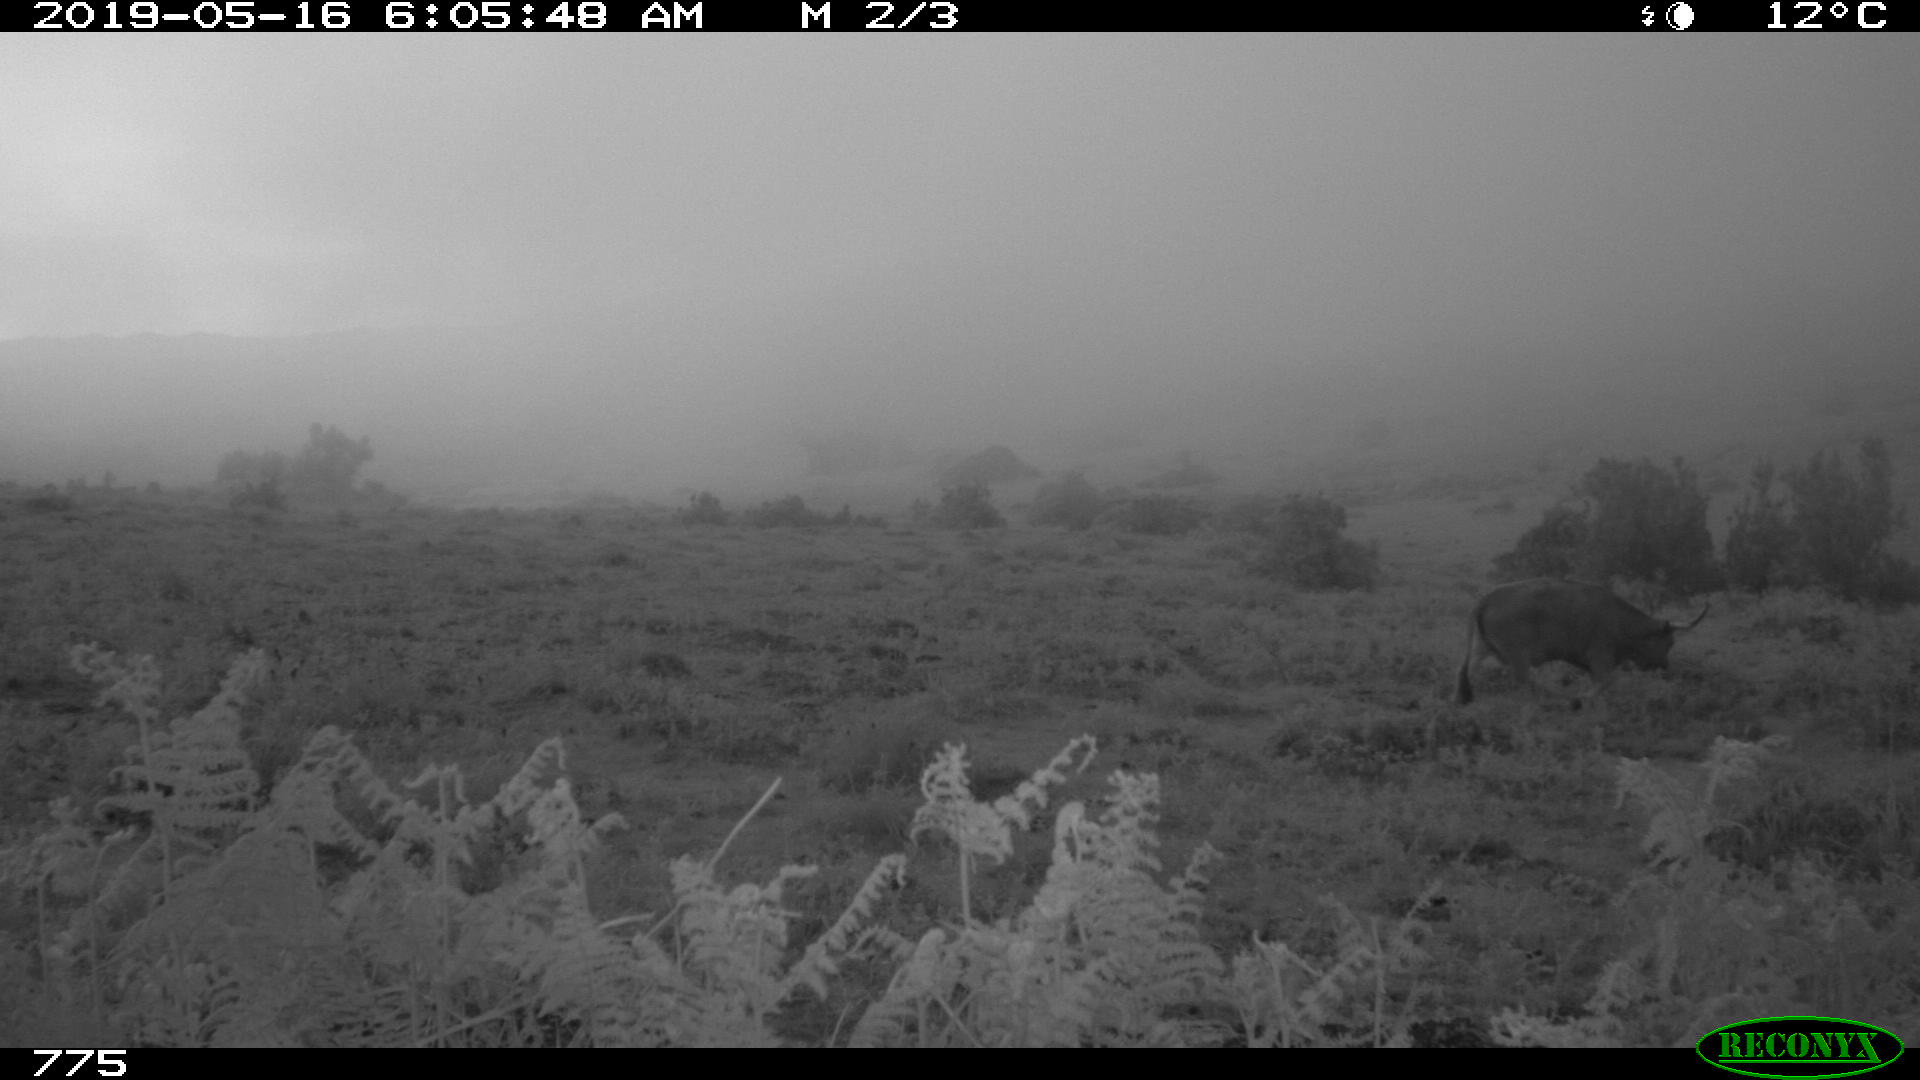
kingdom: Animalia
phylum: Chordata
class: Mammalia
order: Artiodactyla
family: Bovidae
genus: Bos
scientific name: Bos taurus
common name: Domesticated cattle
